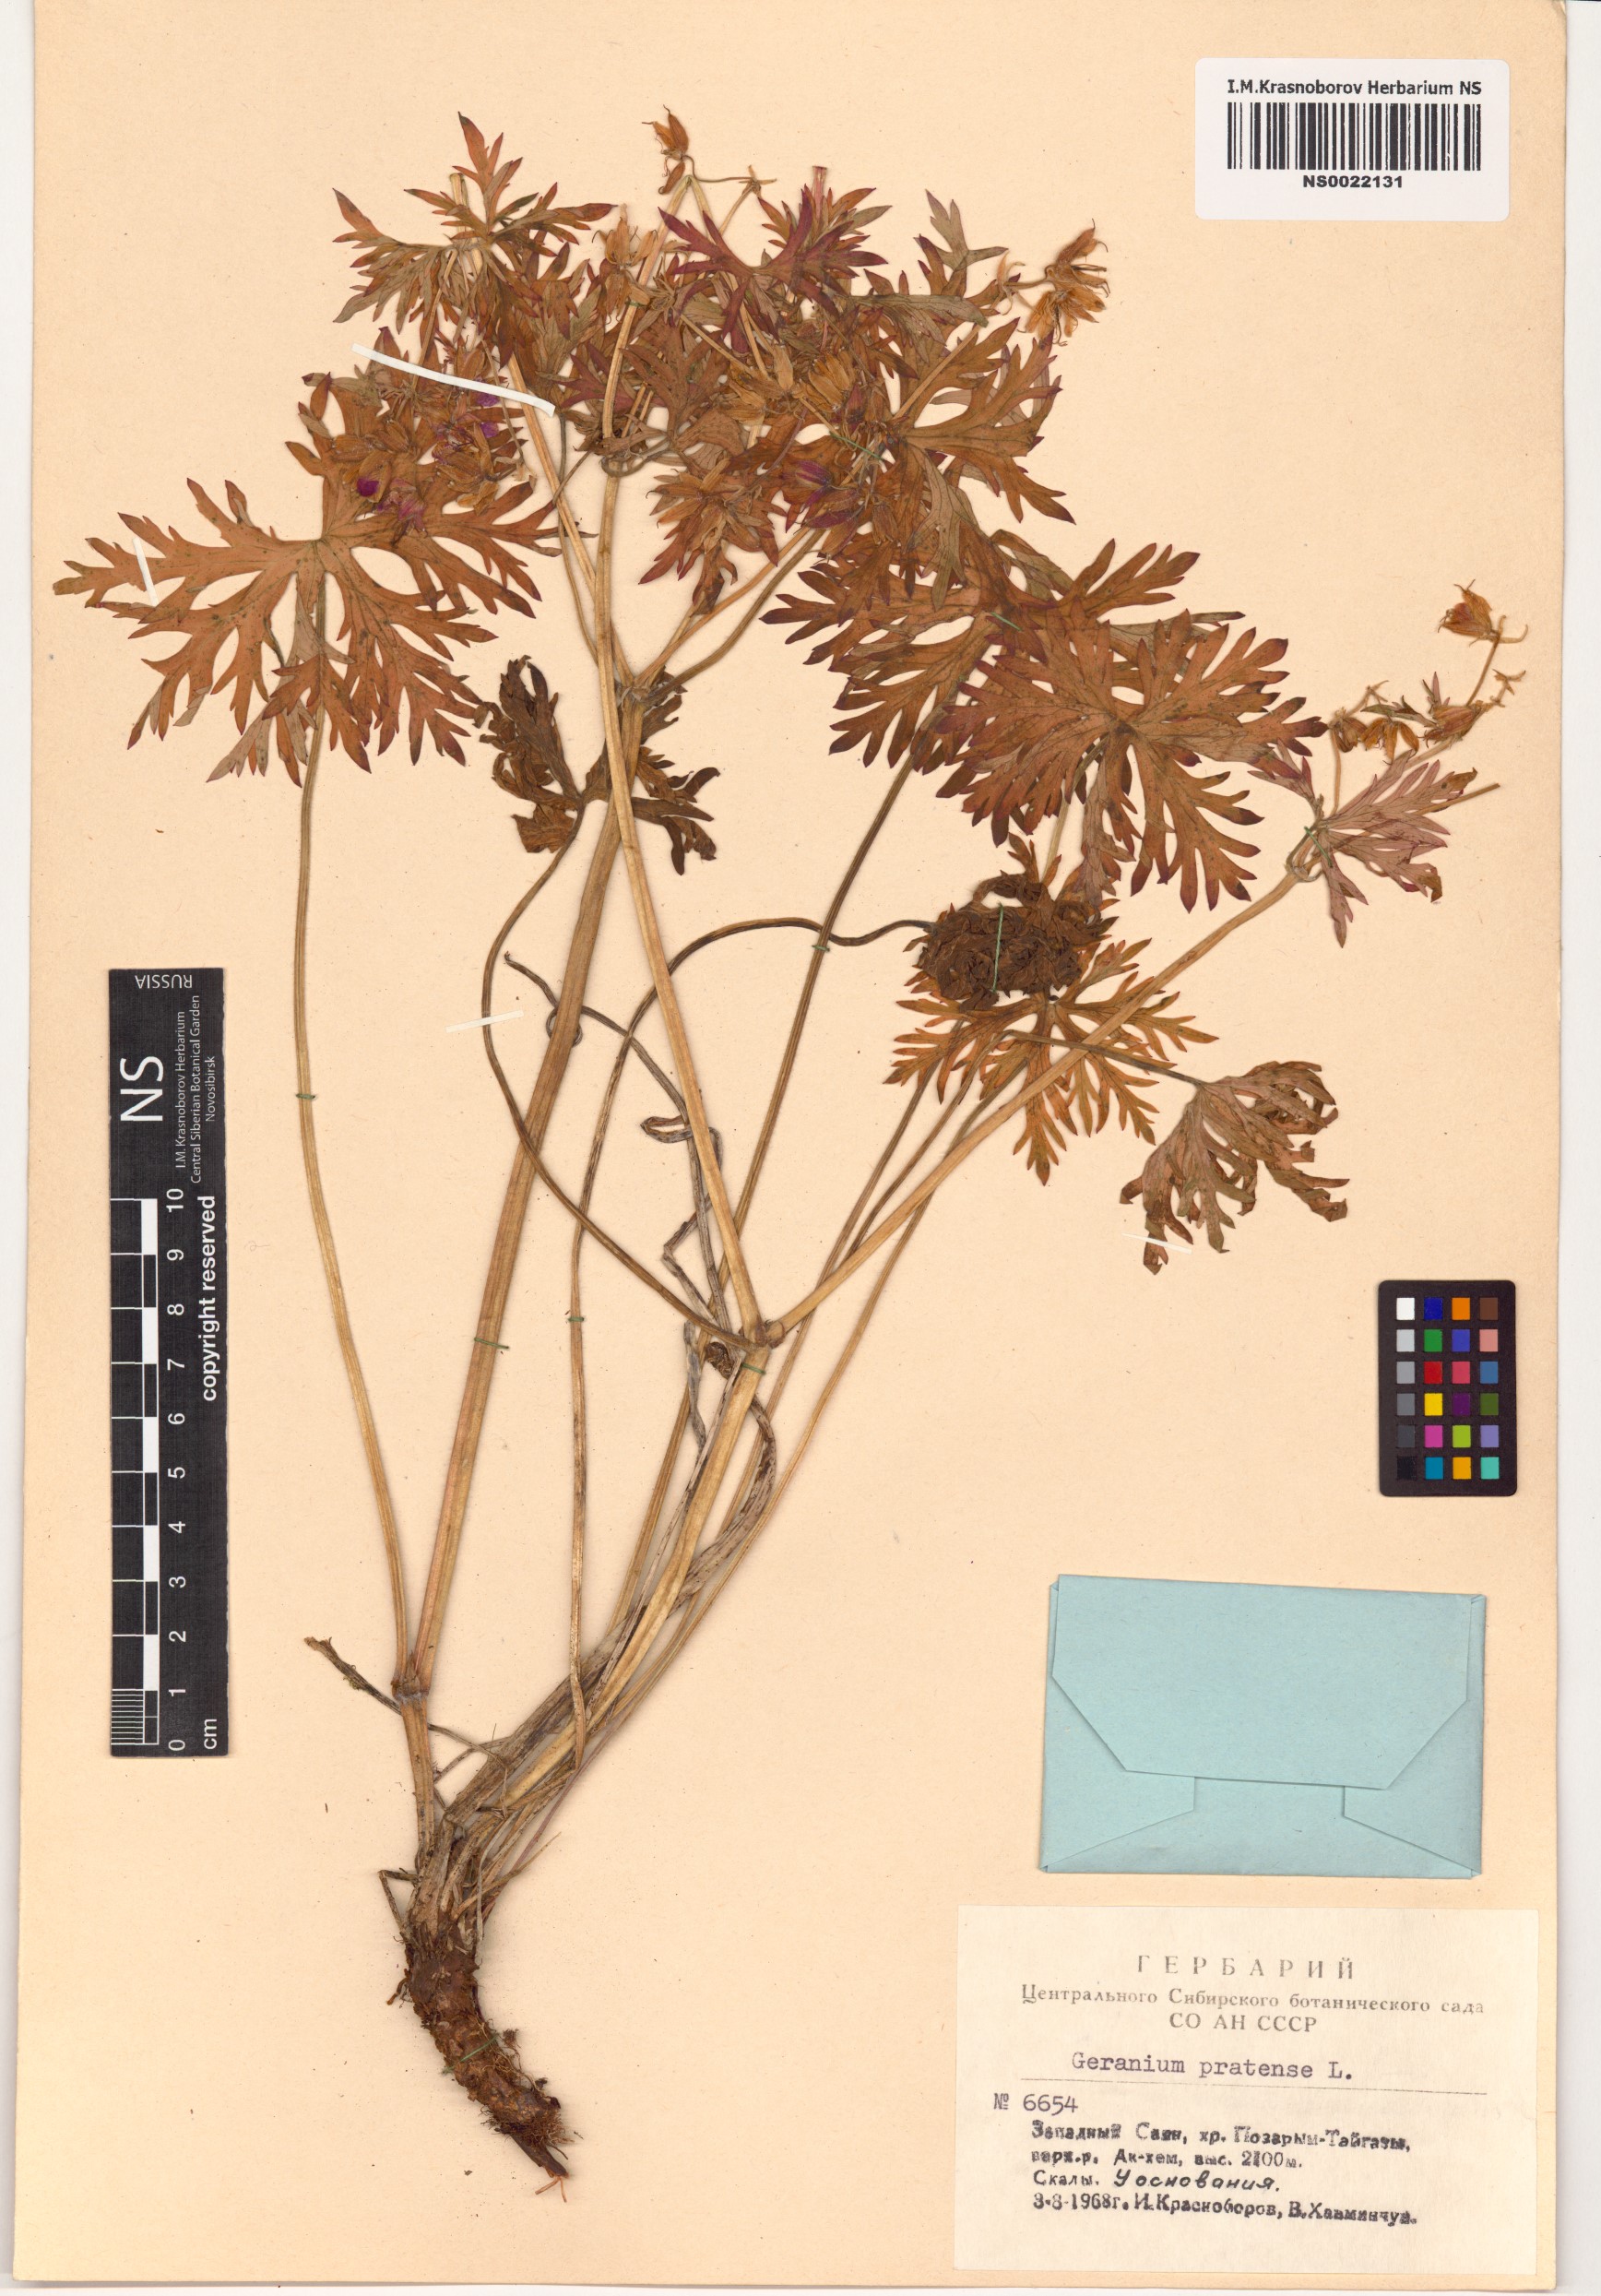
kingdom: Plantae
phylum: Tracheophyta
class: Magnoliopsida
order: Geraniales
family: Geraniaceae
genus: Geranium
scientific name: Geranium pratense
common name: Meadow crane's-bill
